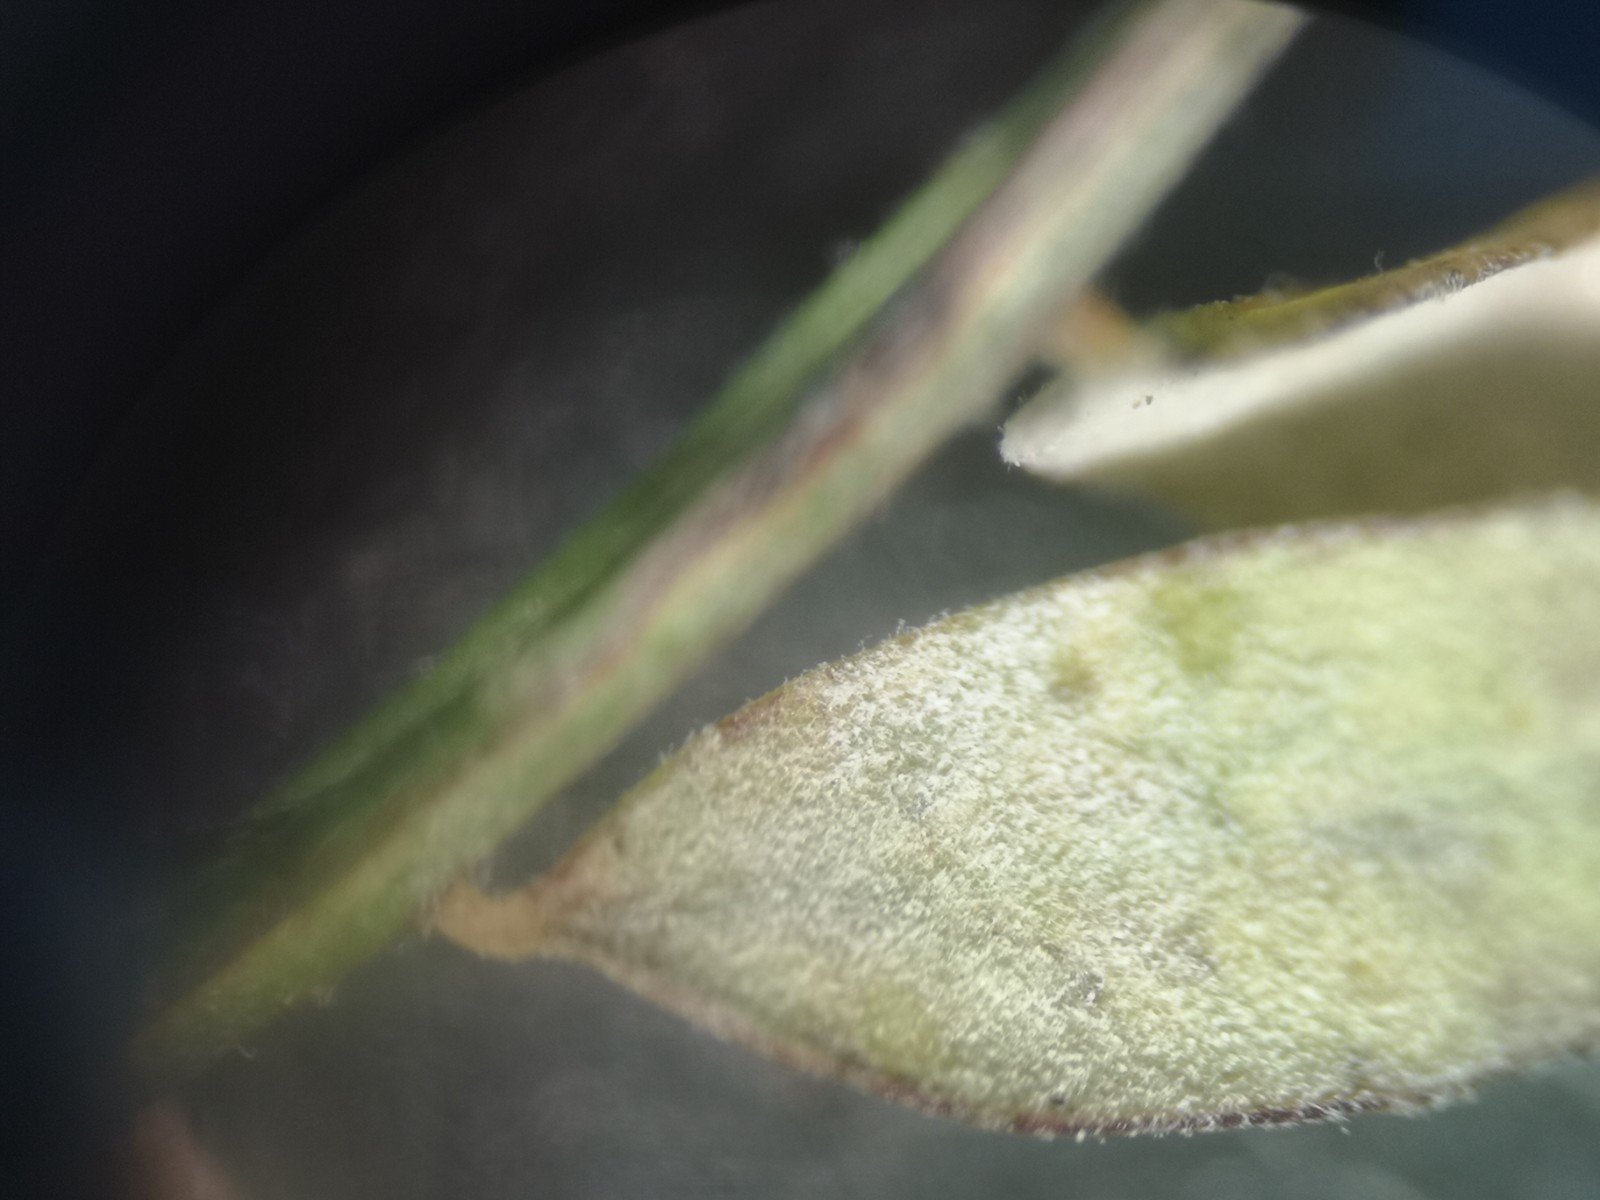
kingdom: Fungi
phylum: Ascomycota
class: Leotiomycetes
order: Helotiales
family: Erysiphaceae
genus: Erysiphe
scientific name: Erysiphe pisi
